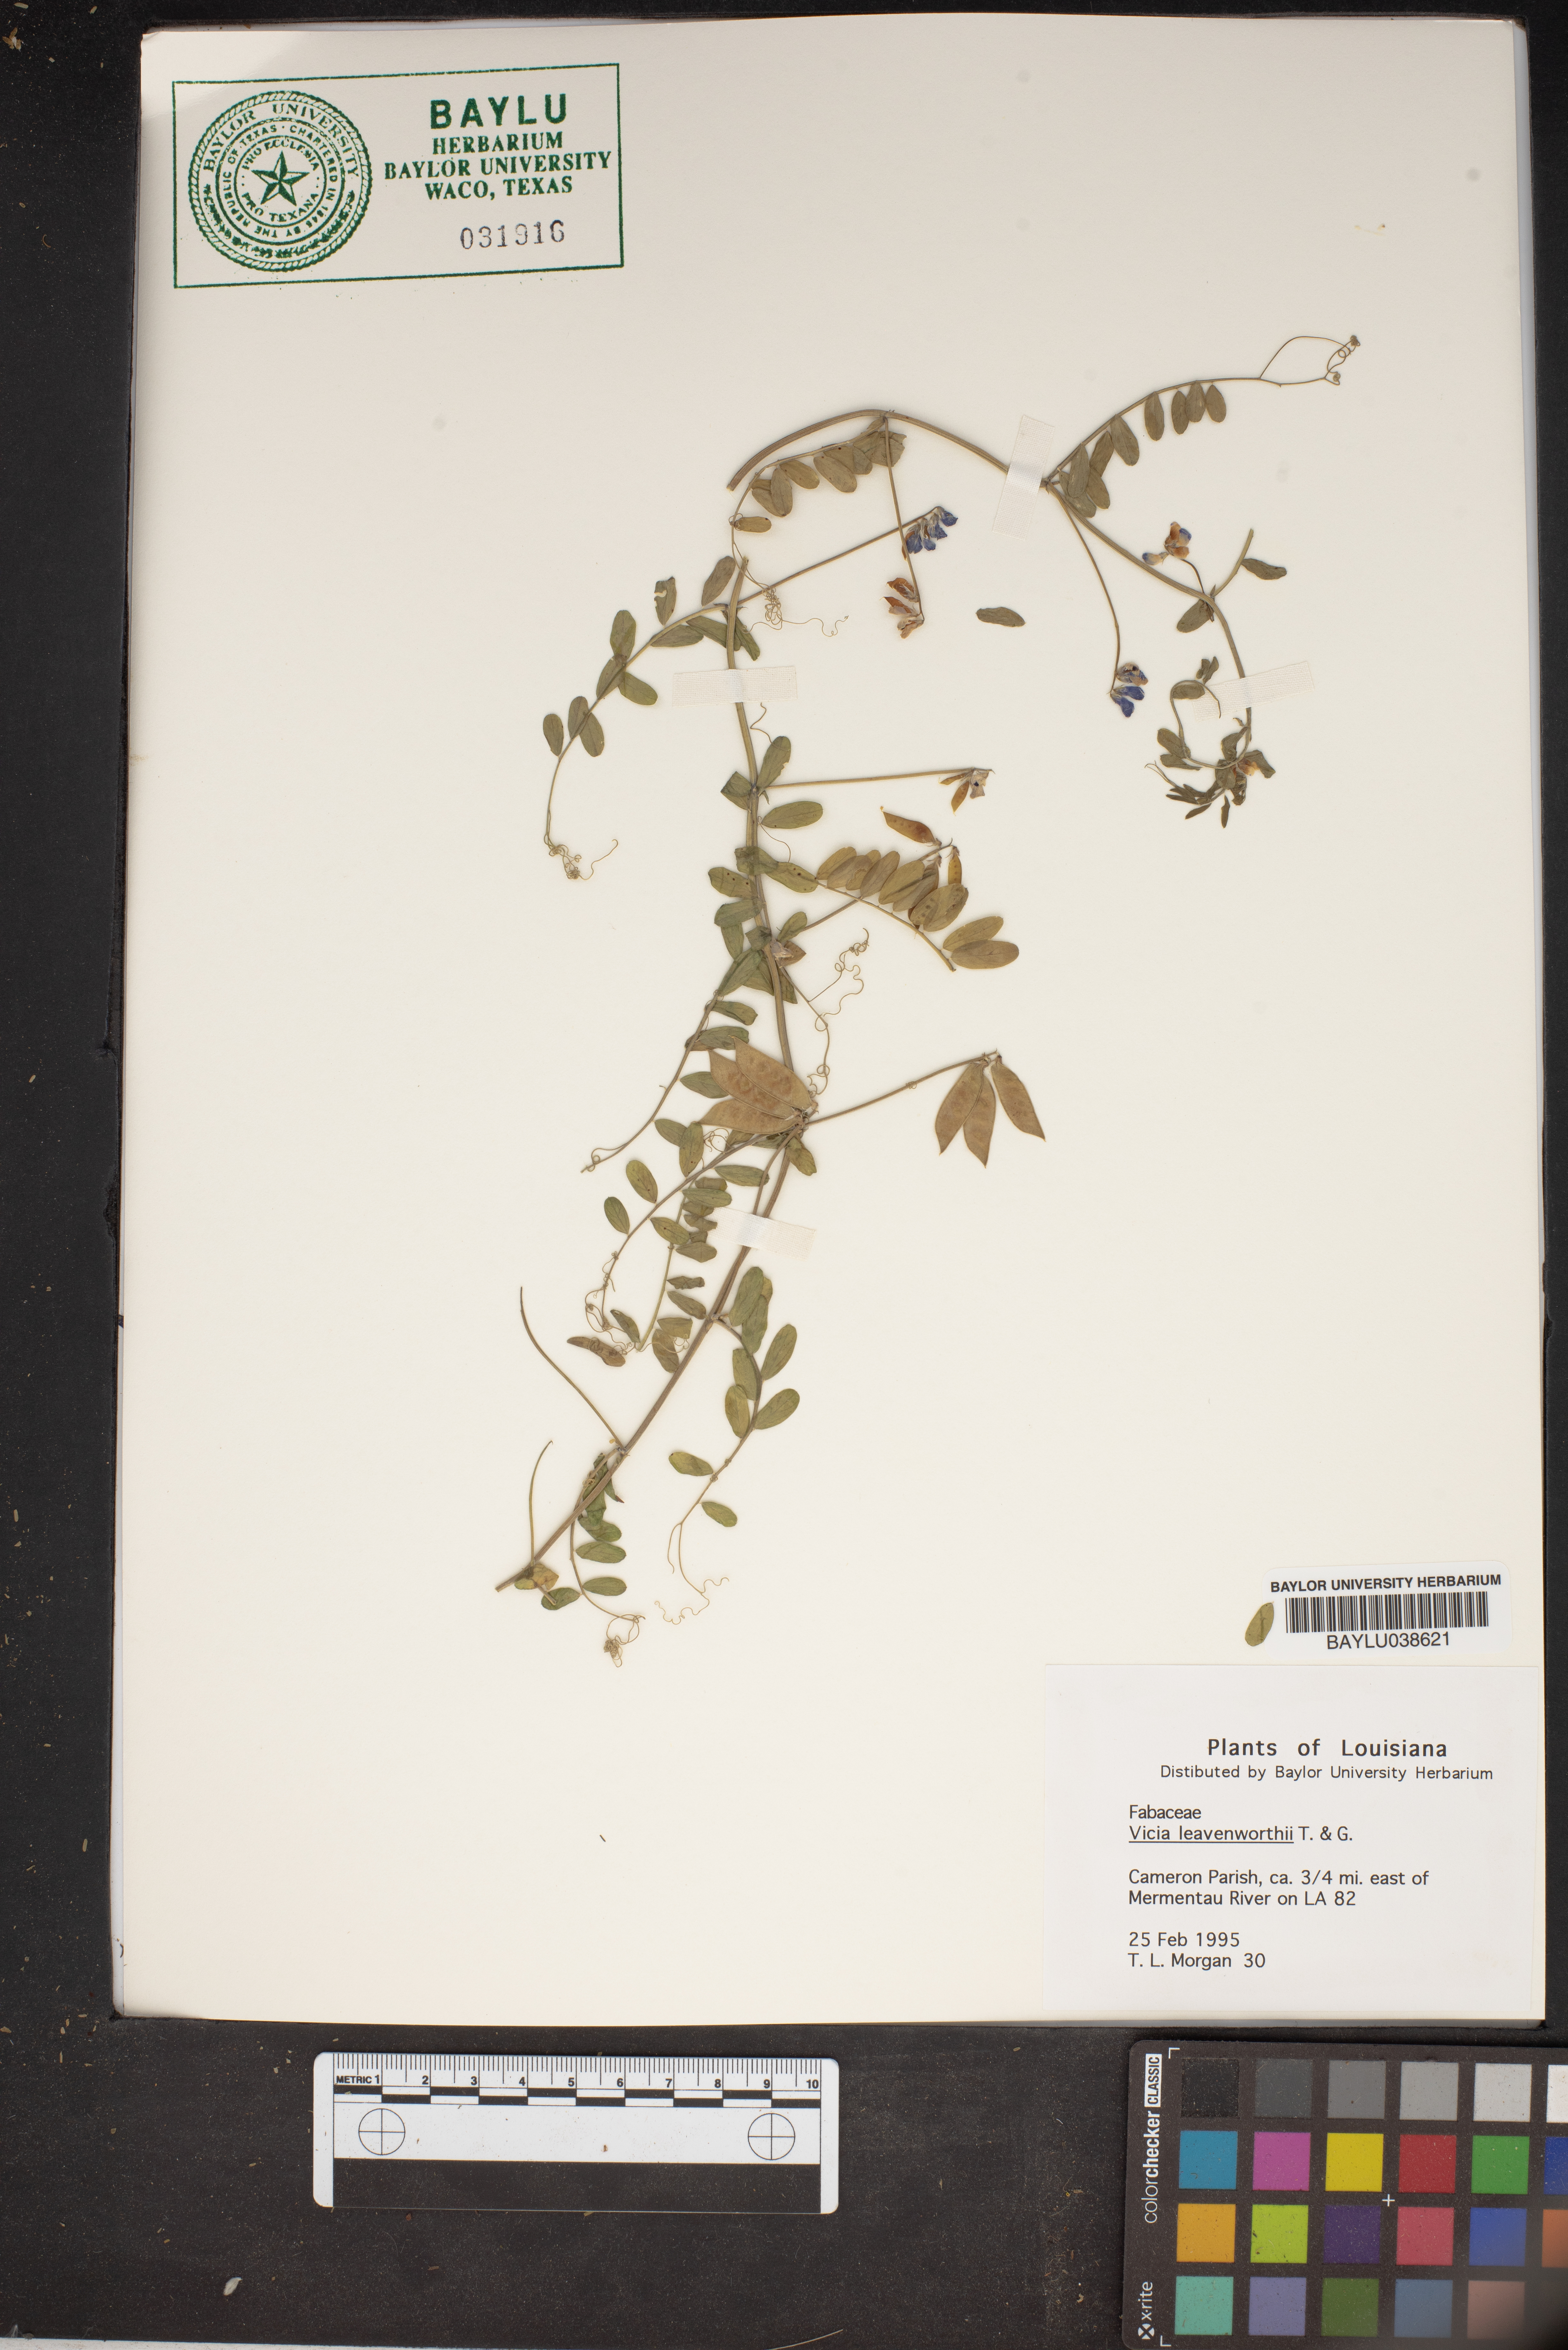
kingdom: Plantae
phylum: Tracheophyta
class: Magnoliopsida
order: Fabales
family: Fabaceae
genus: Vicia
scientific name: Vicia ludoviciana
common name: Louisiana vetch
